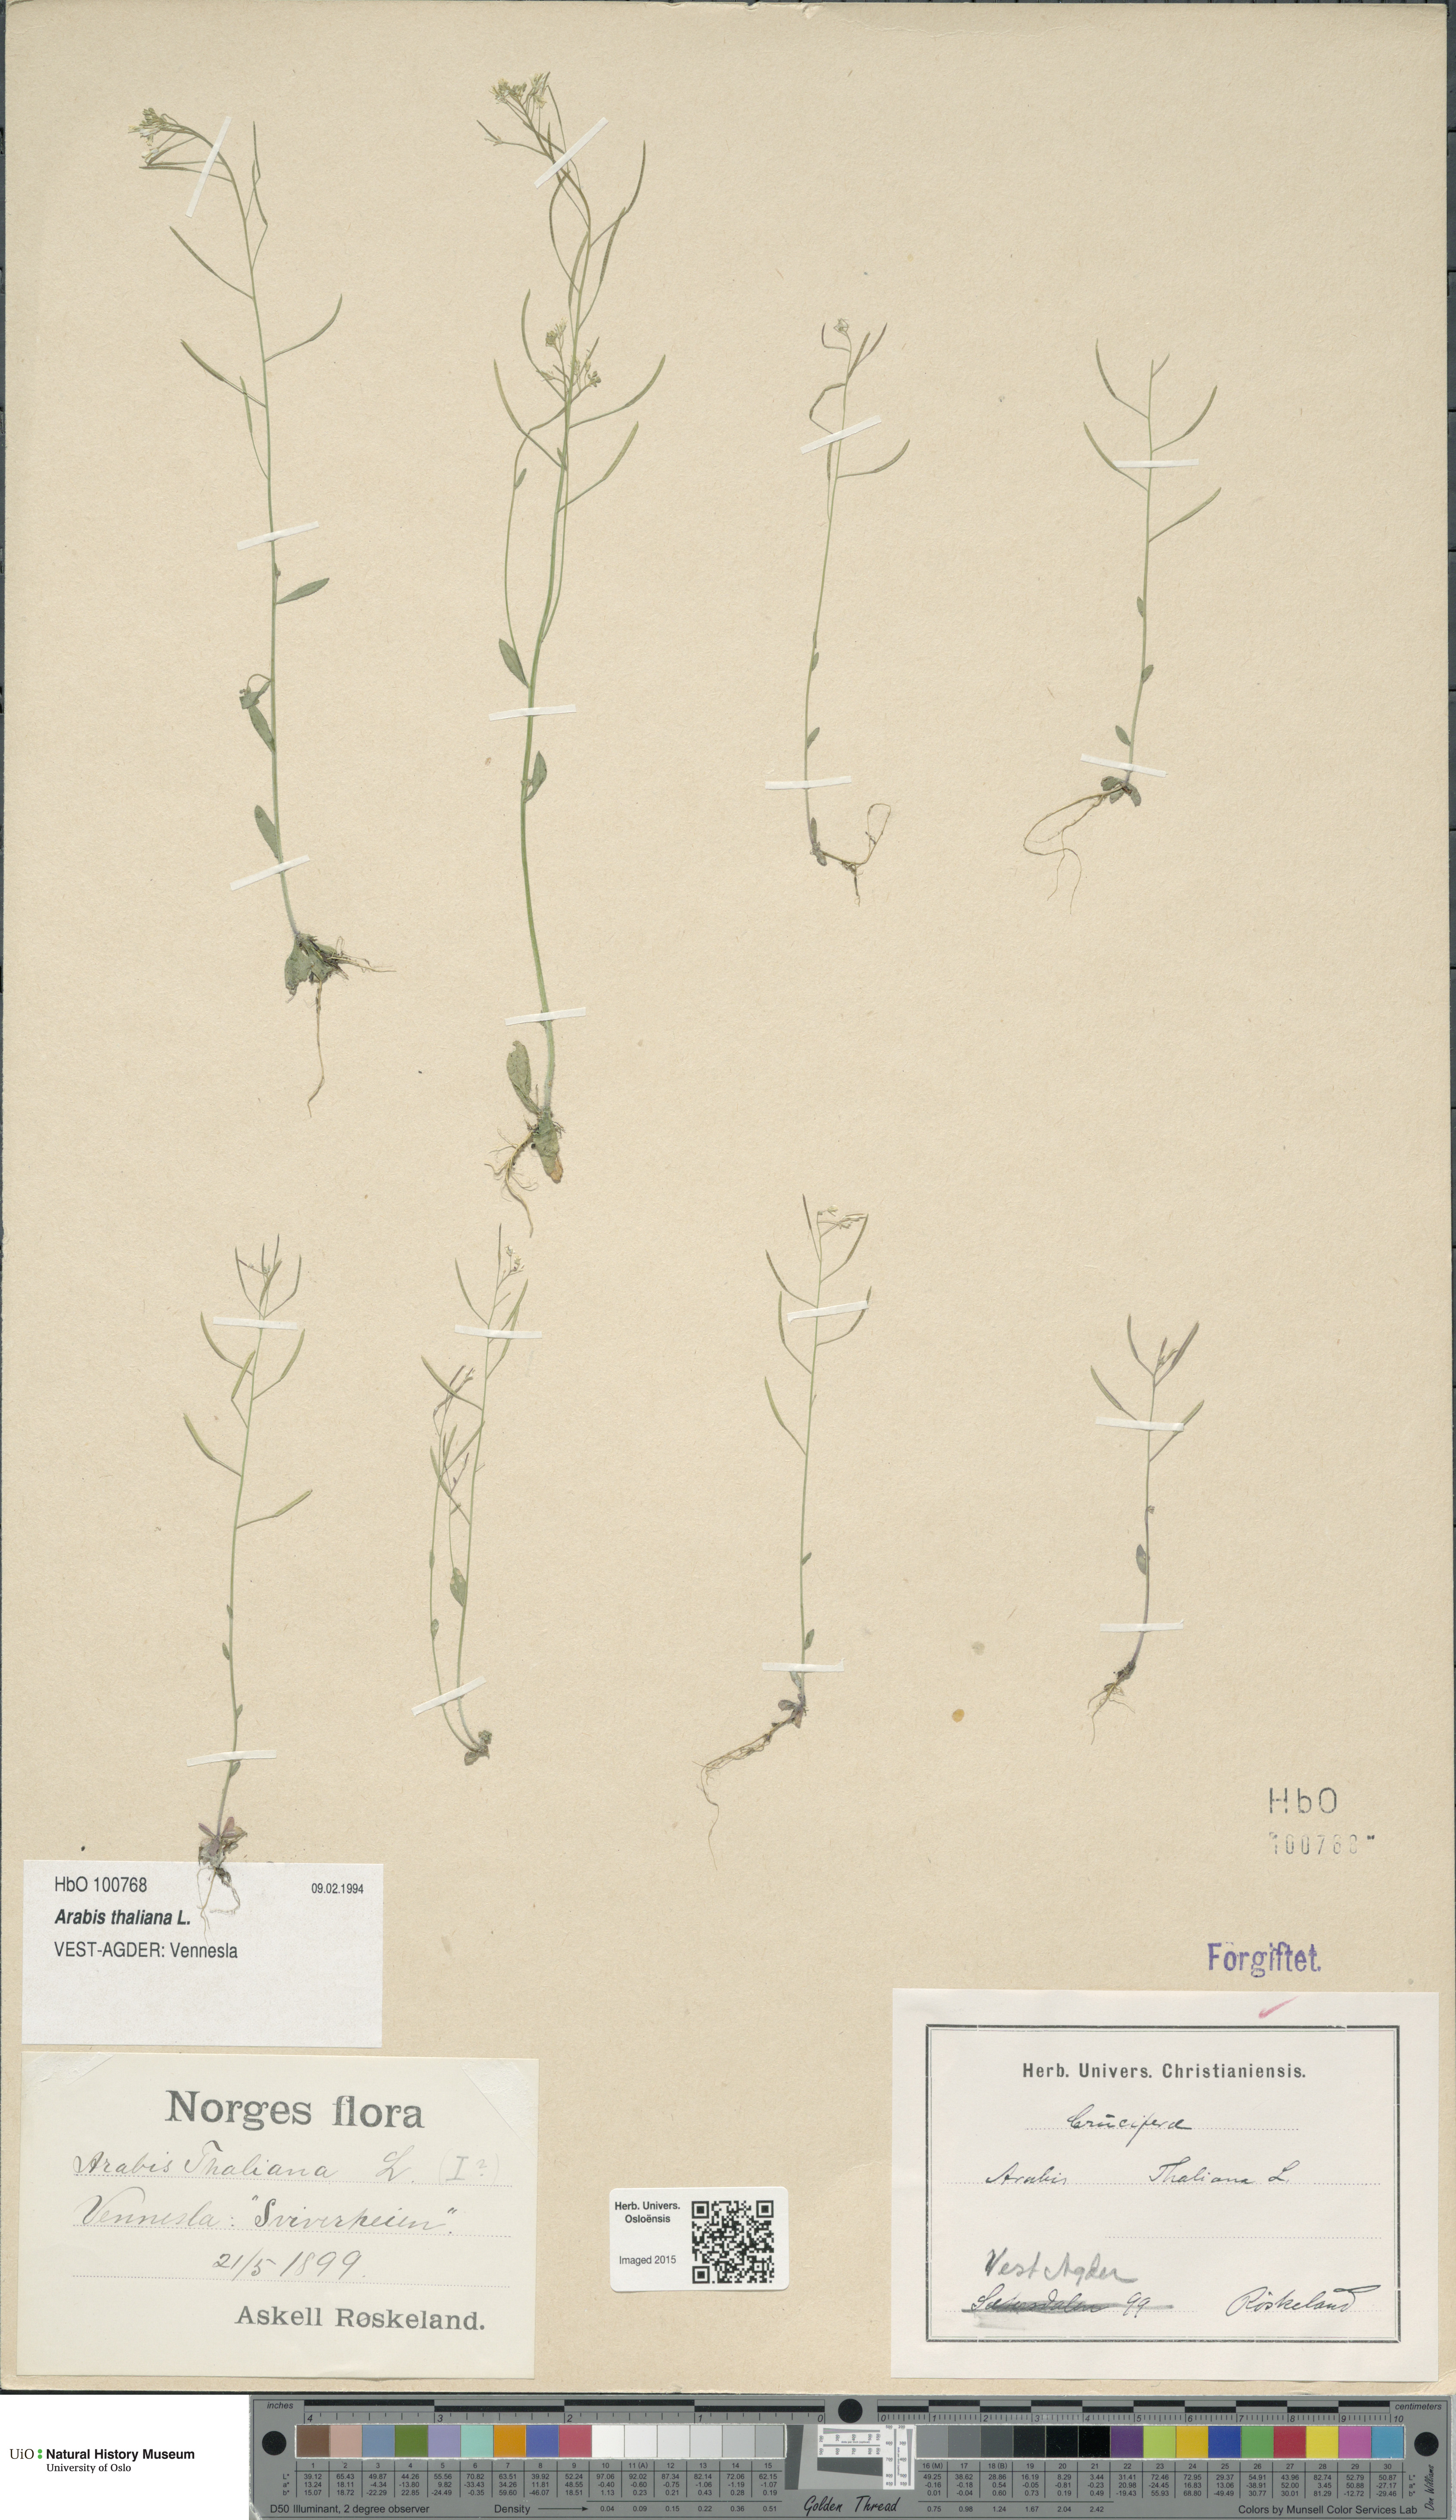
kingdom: Plantae
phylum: Tracheophyta
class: Magnoliopsida
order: Brassicales
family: Brassicaceae
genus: Arabidopsis
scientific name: Arabidopsis thaliana
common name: Thale cress
